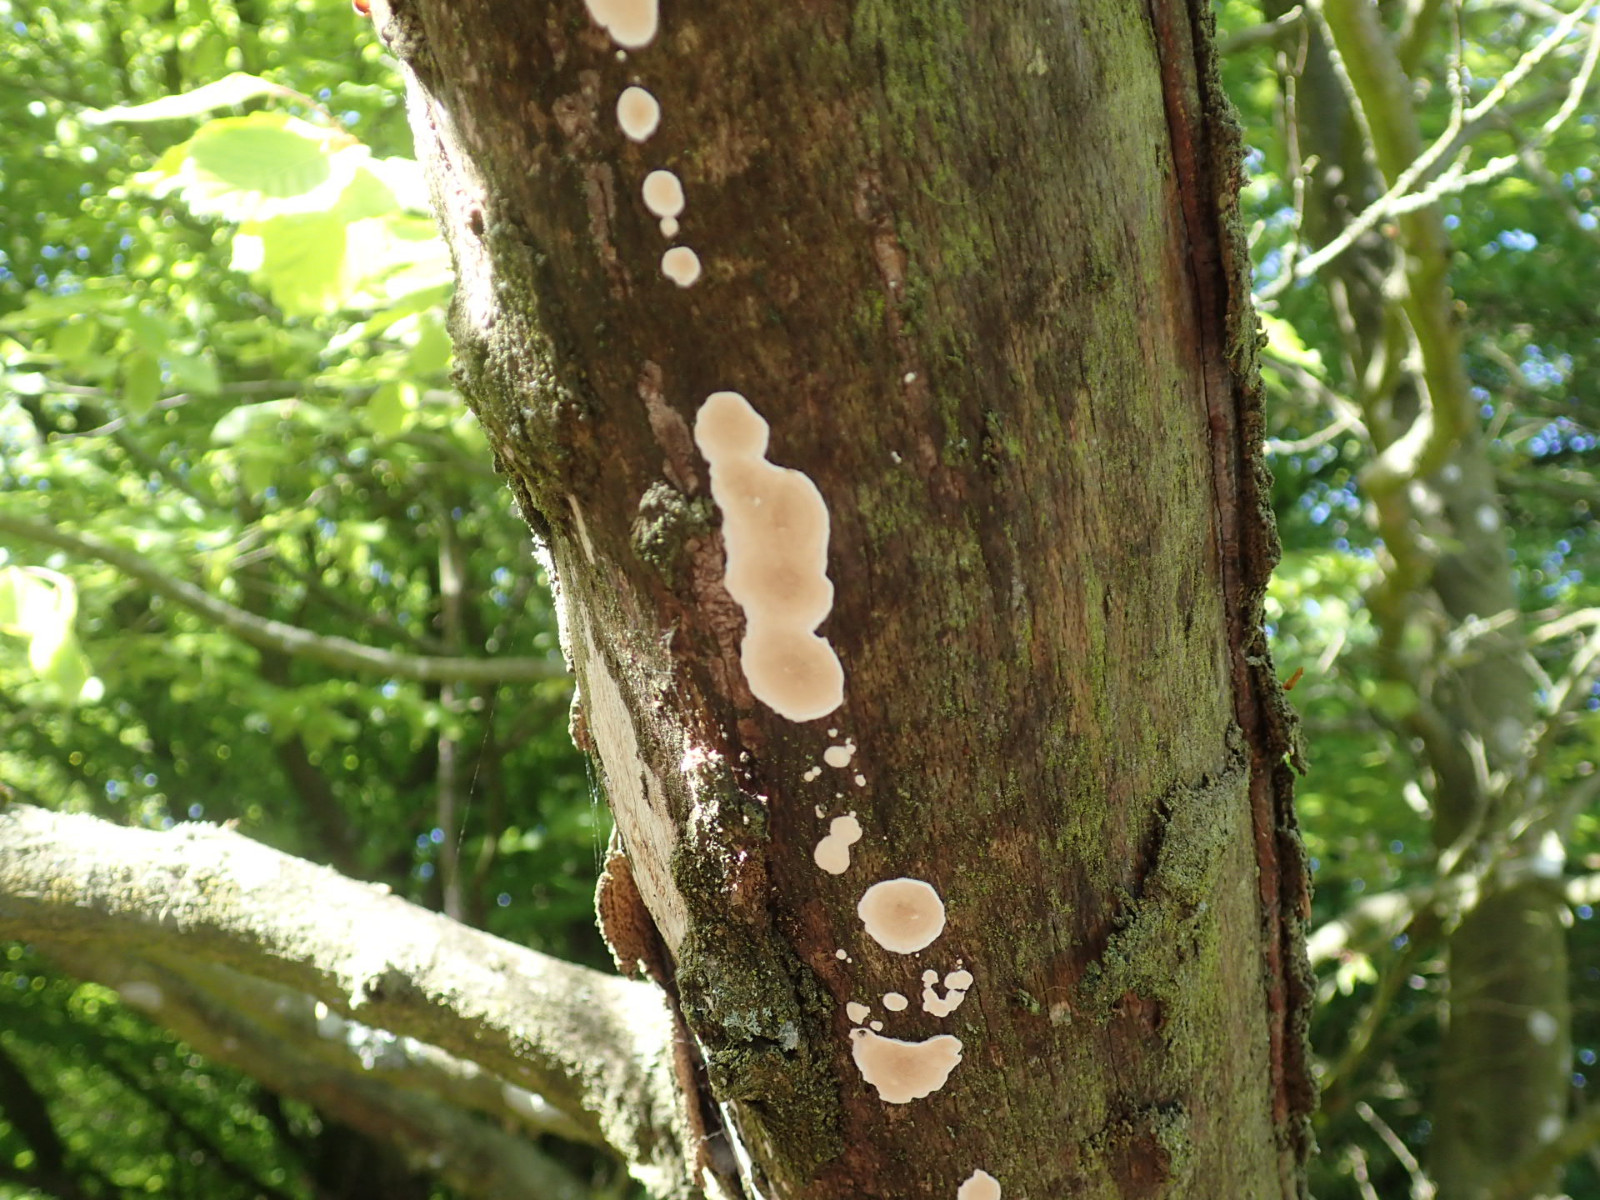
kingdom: Fungi
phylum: Basidiomycota
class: Agaricomycetes
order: Corticiales
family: Corticiaceae
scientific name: Corticiaceae
